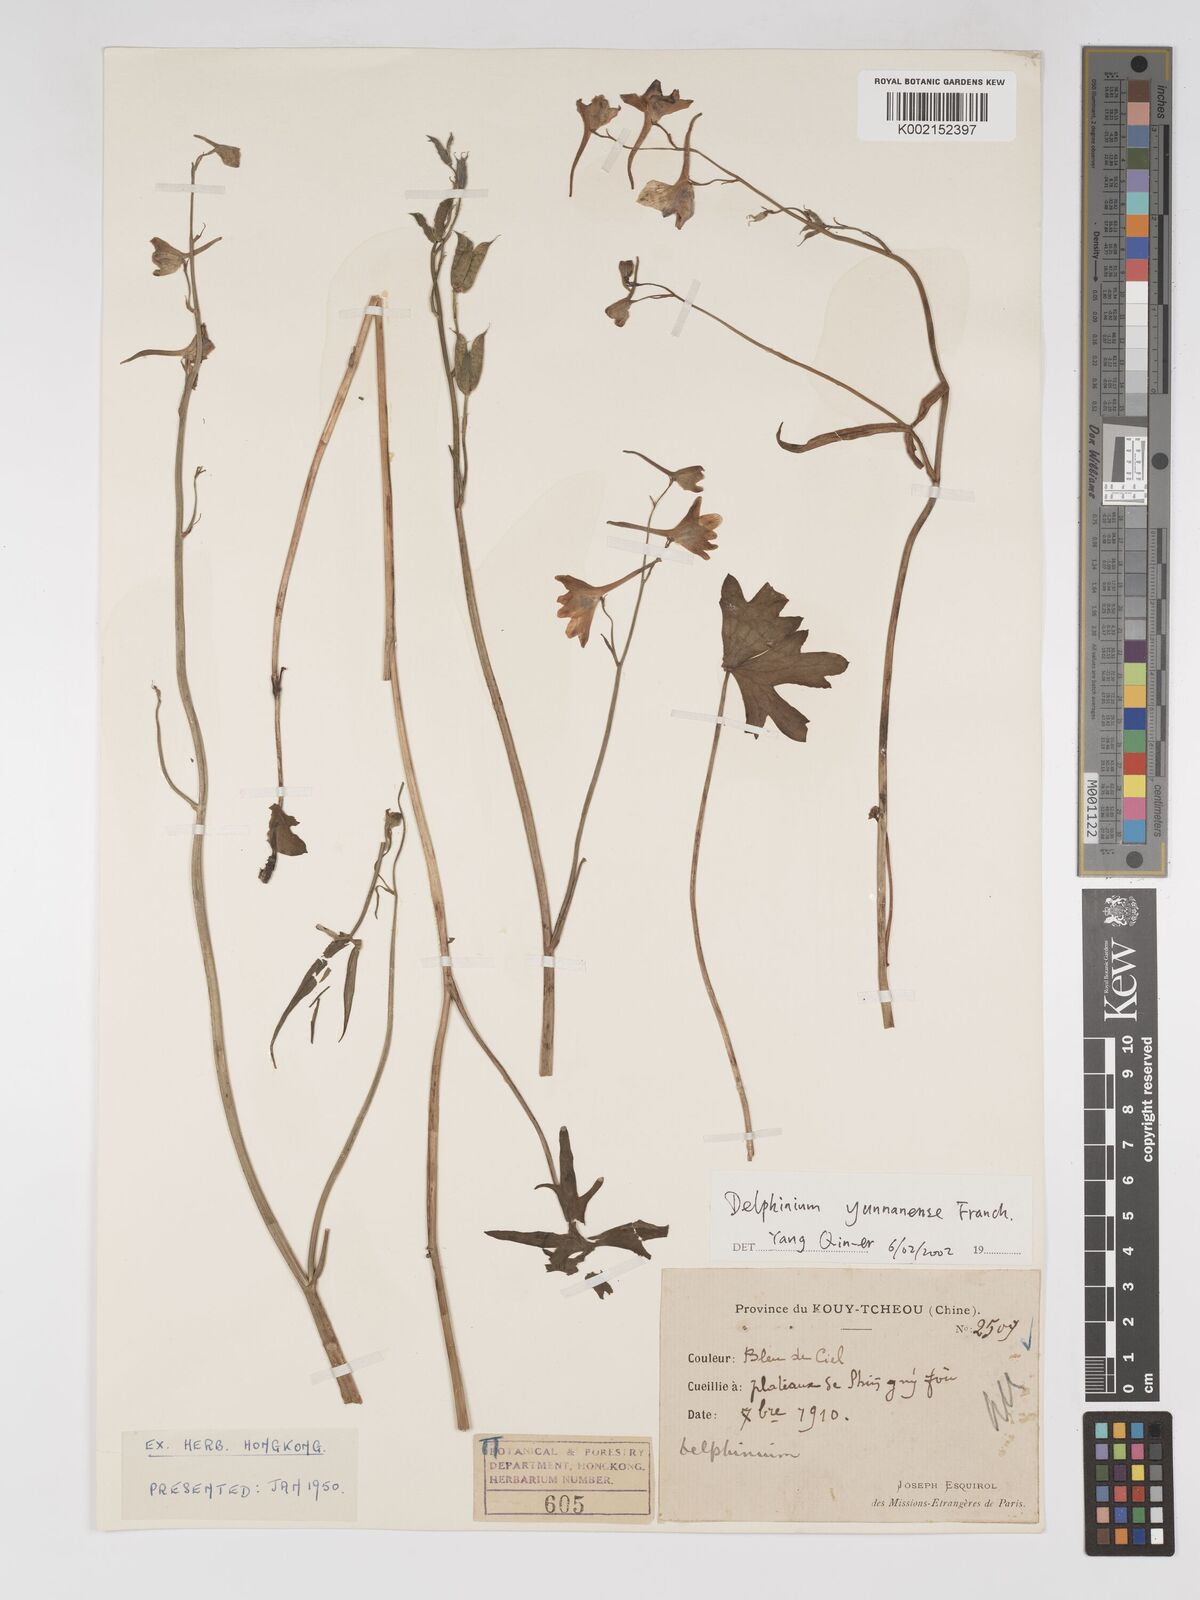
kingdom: Plantae
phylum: Tracheophyta
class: Magnoliopsida
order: Ranunculales
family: Ranunculaceae
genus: Delphinium
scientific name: Delphinium yunnanense
